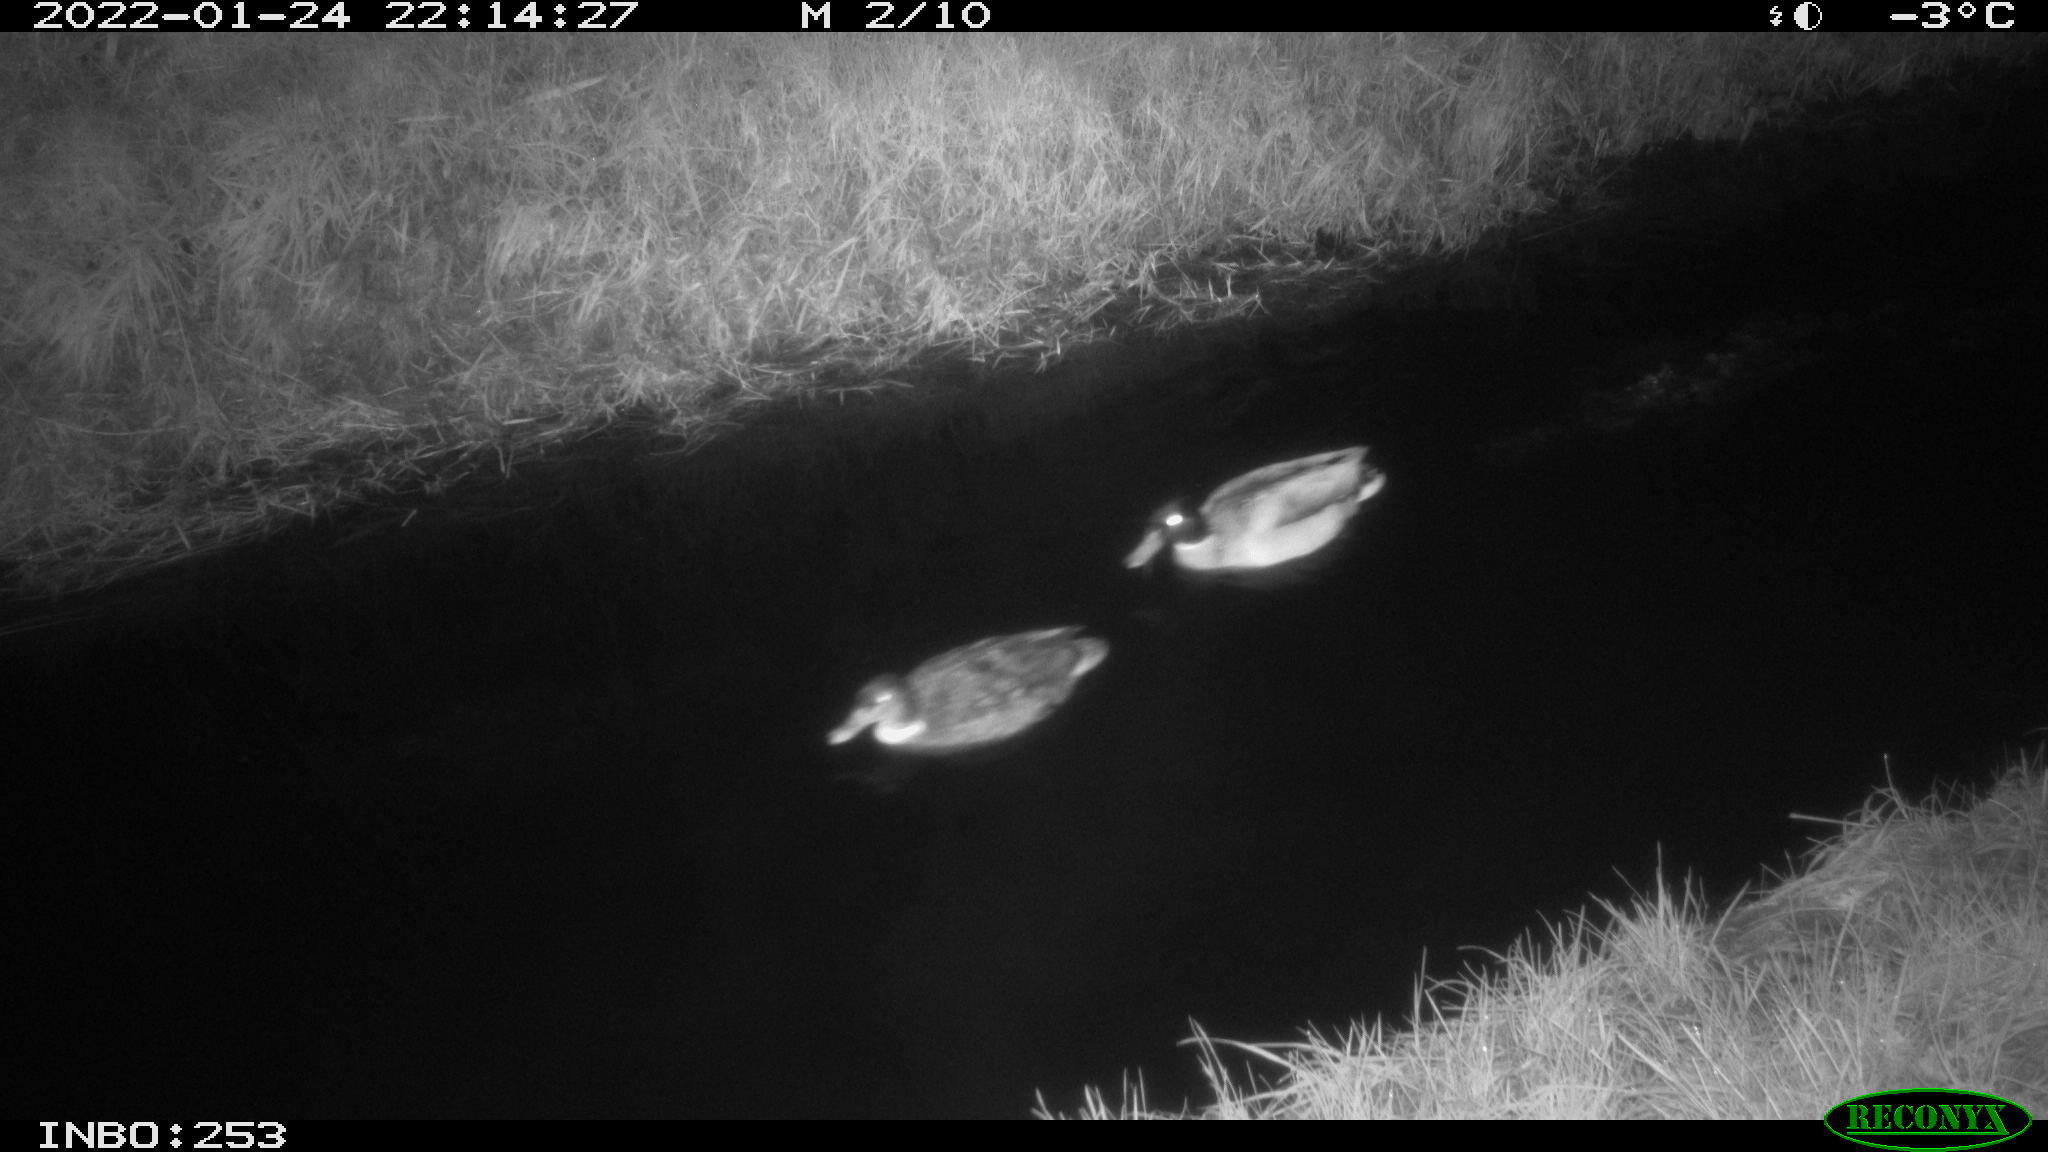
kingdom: Animalia
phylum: Chordata
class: Aves
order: Anseriformes
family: Anatidae
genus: Anas
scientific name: Anas
